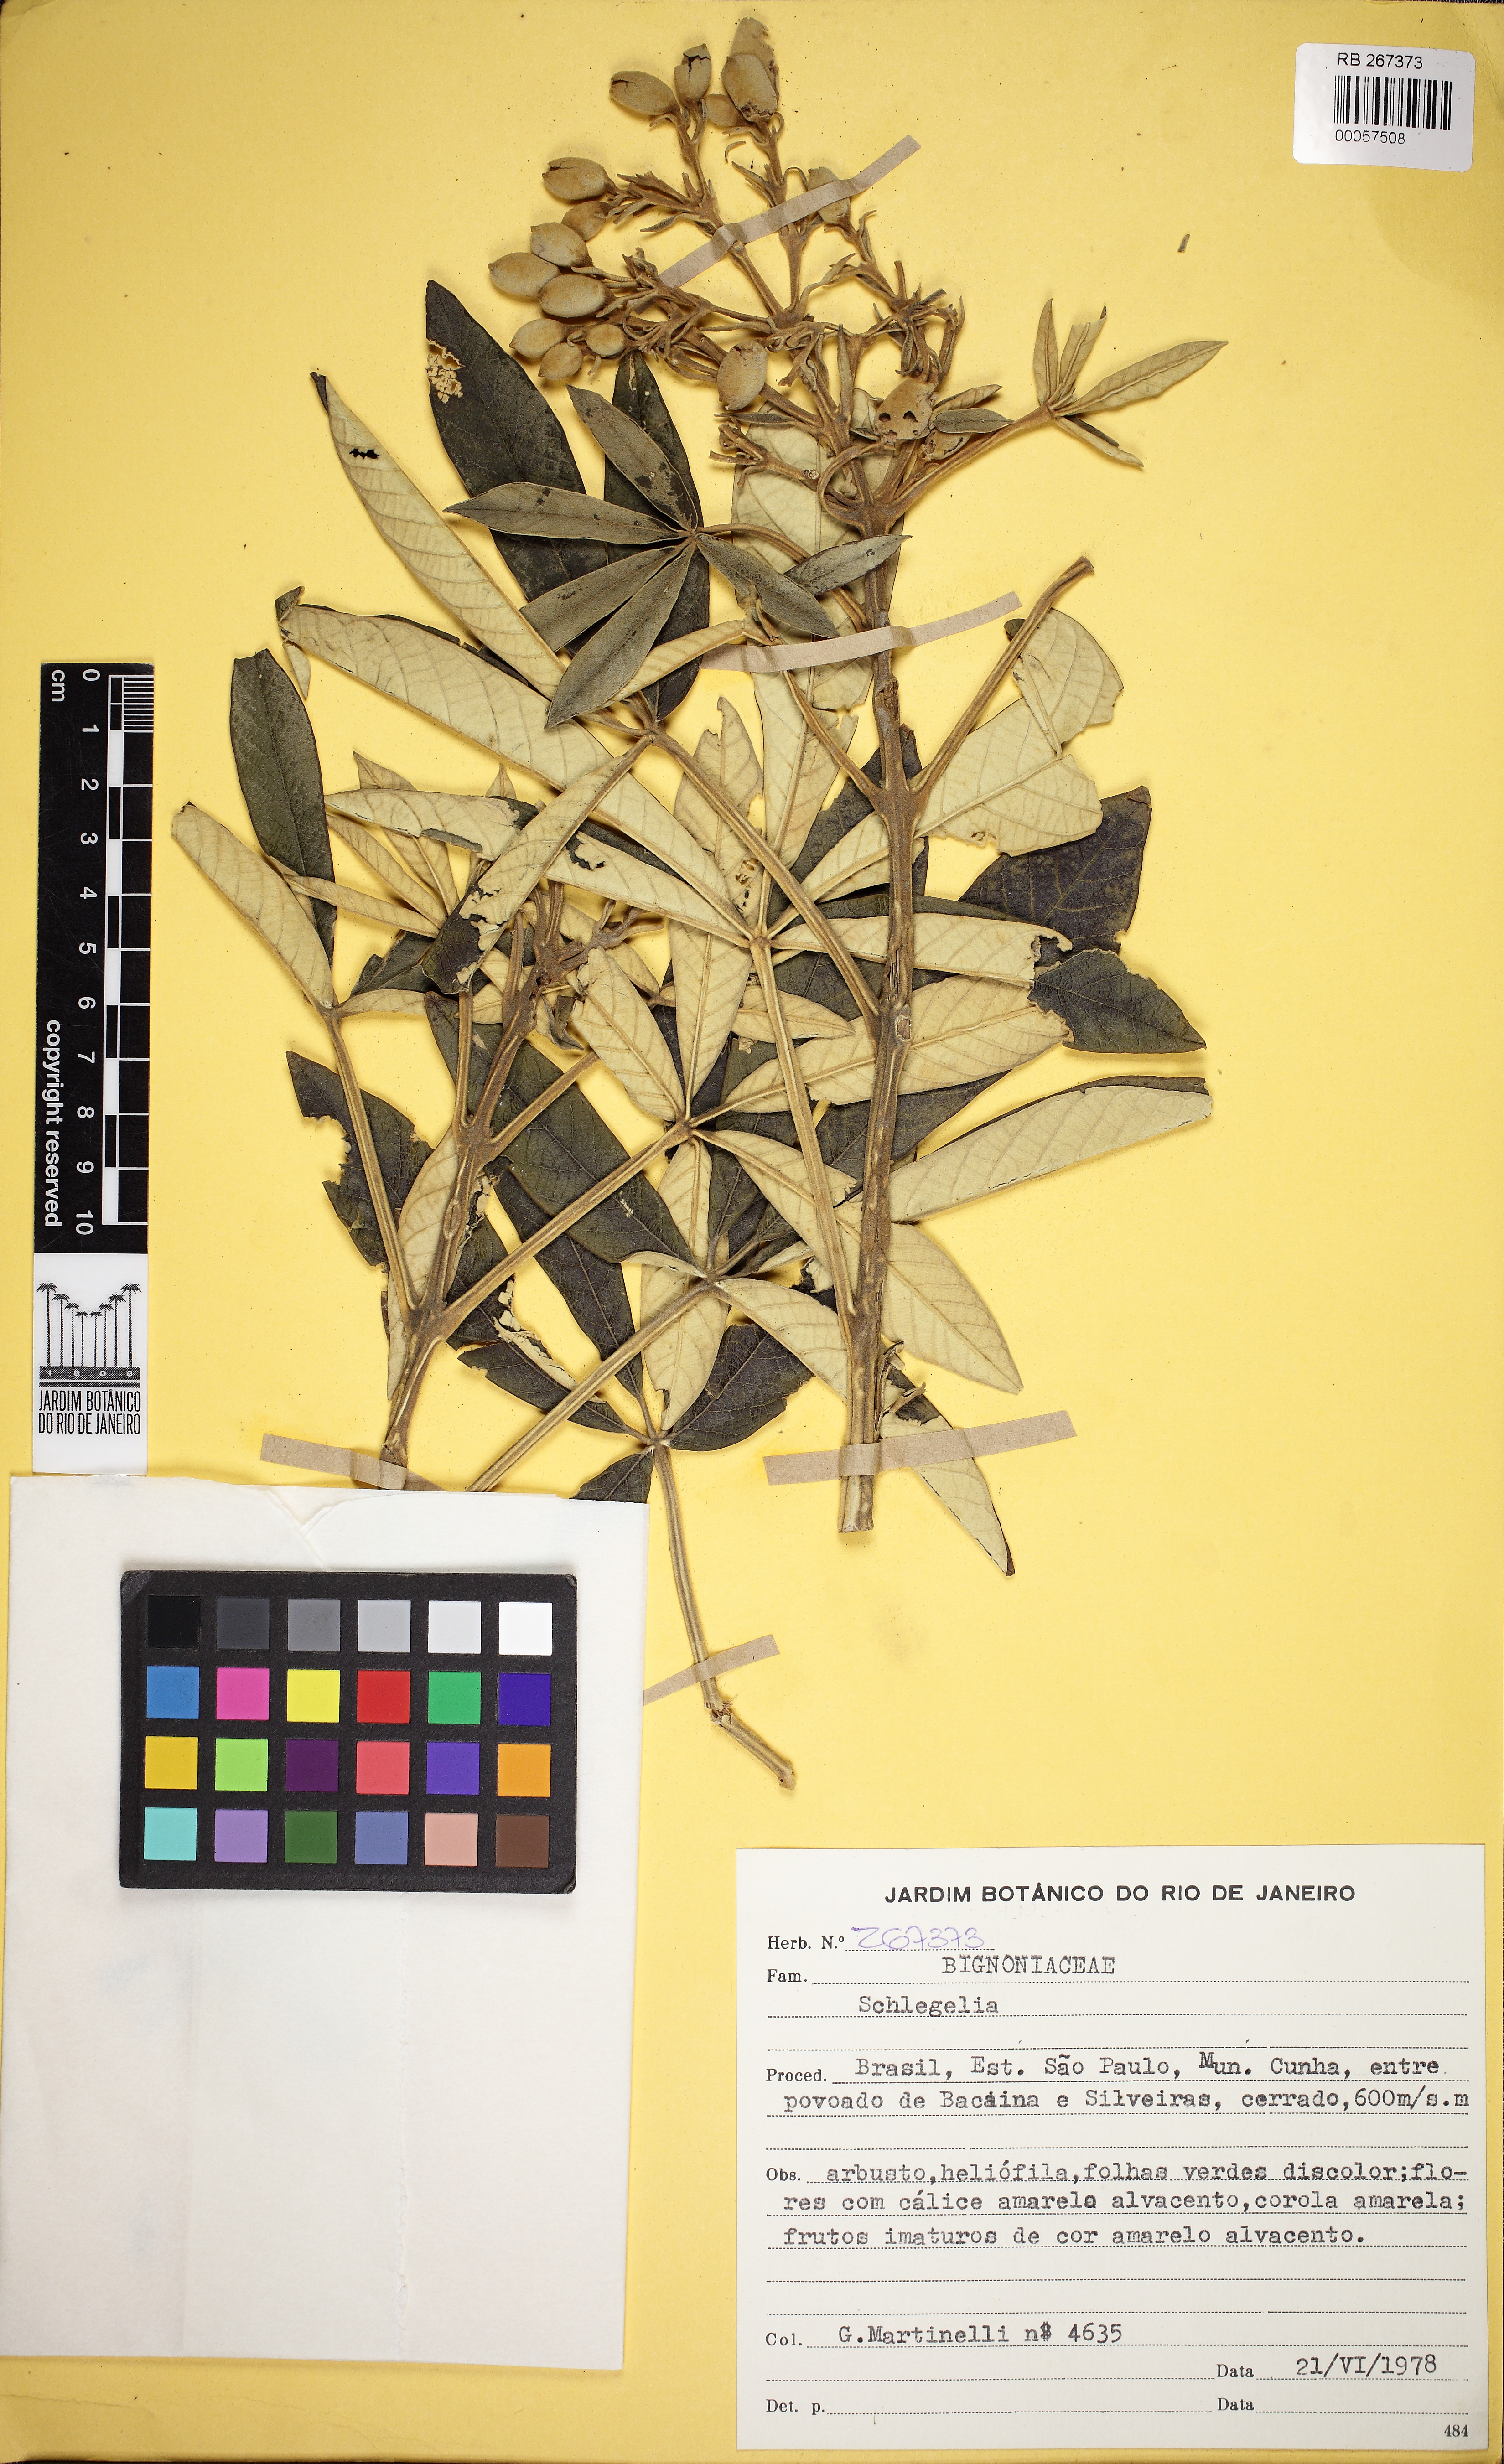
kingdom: Plantae
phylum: Tracheophyta
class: Magnoliopsida
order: Lamiales
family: Bignoniaceae
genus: Zeyheria
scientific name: Zeyheria montana
